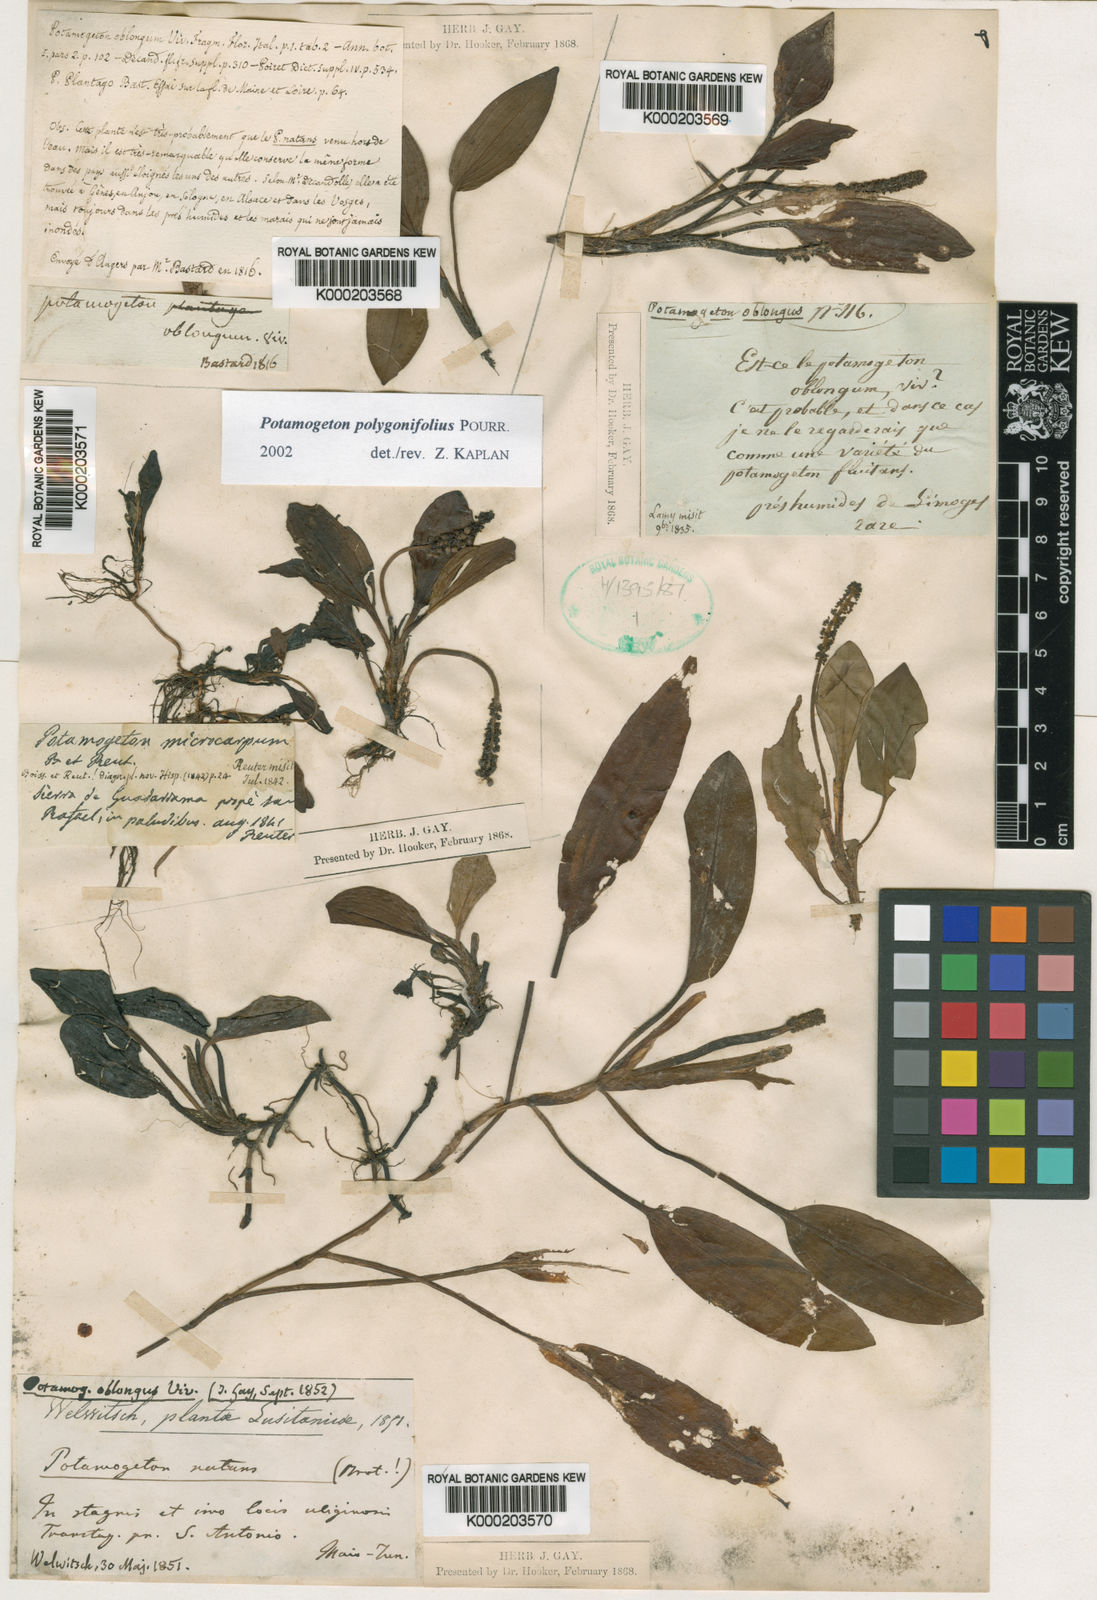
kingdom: Plantae
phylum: Tracheophyta
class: Liliopsida
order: Alismatales
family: Potamogetonaceae
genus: Potamogeton
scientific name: Potamogeton polygonifolius
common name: Bog pondweed
